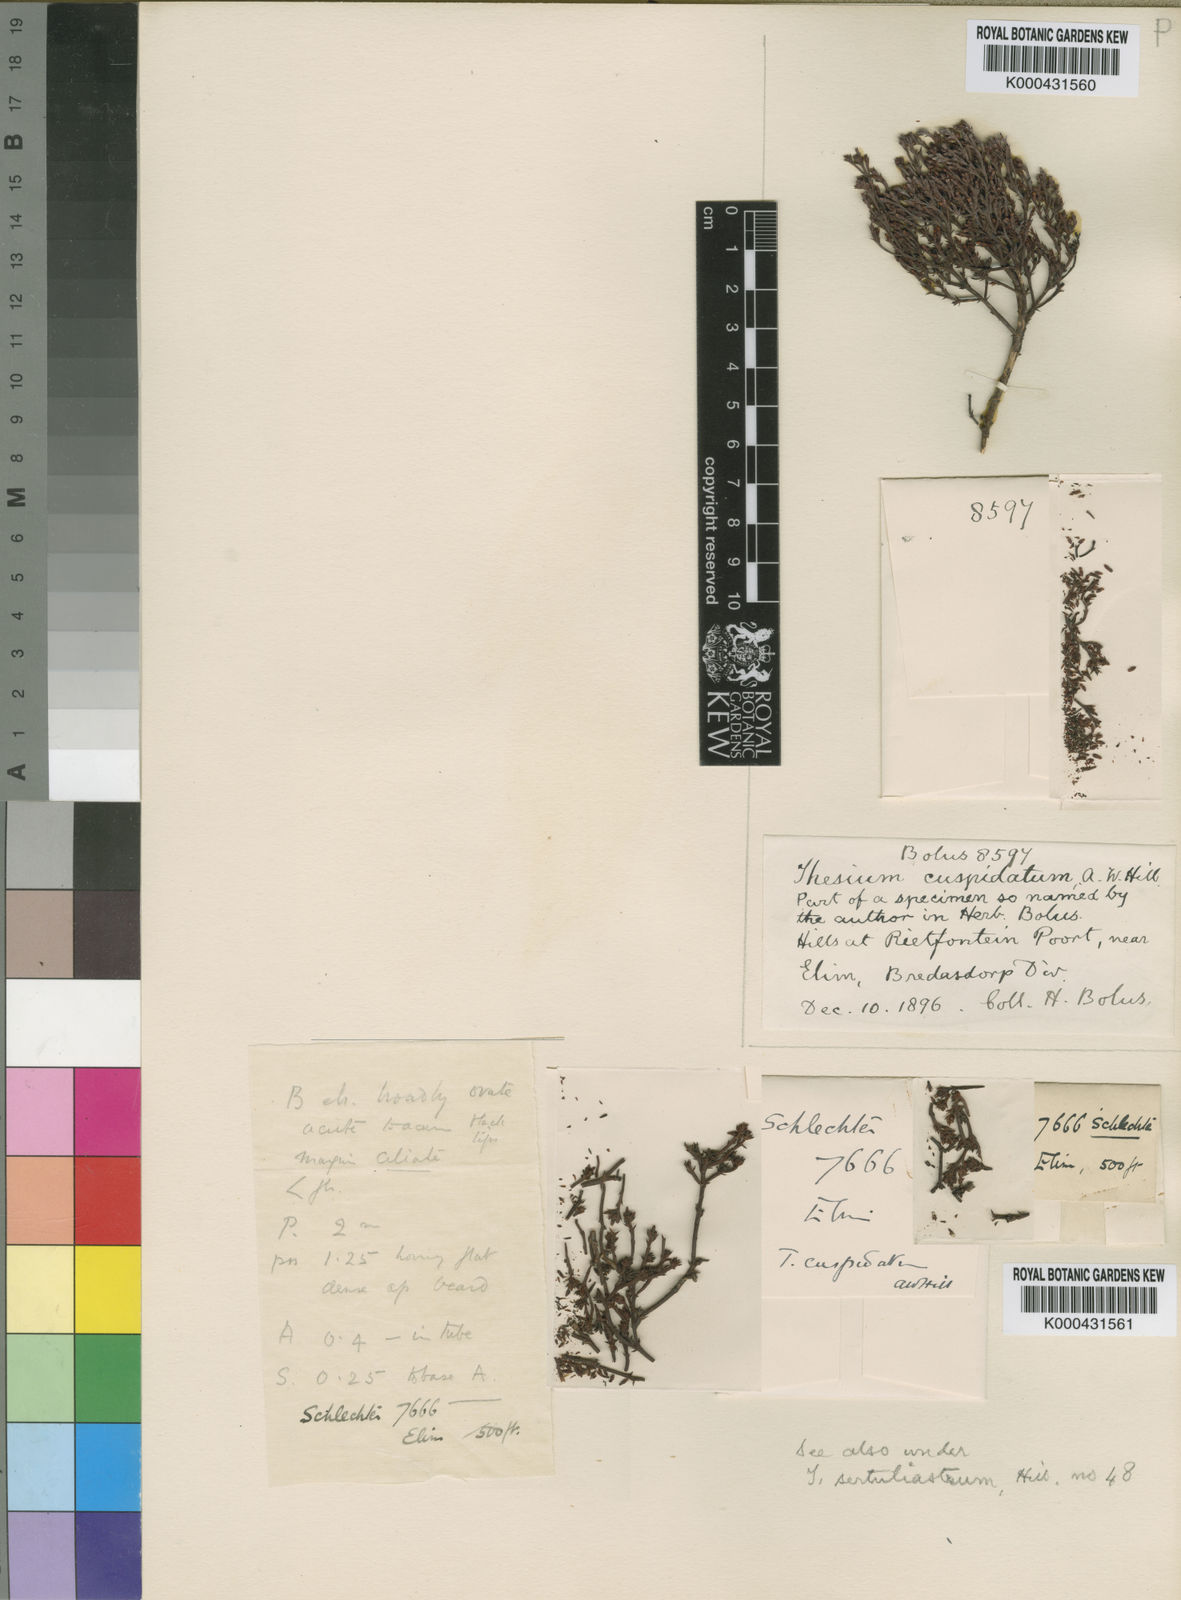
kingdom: Plantae
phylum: Tracheophyta
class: Magnoliopsida
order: Santalales
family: Thesiaceae
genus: Thesium
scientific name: Thesium capituliflorum
